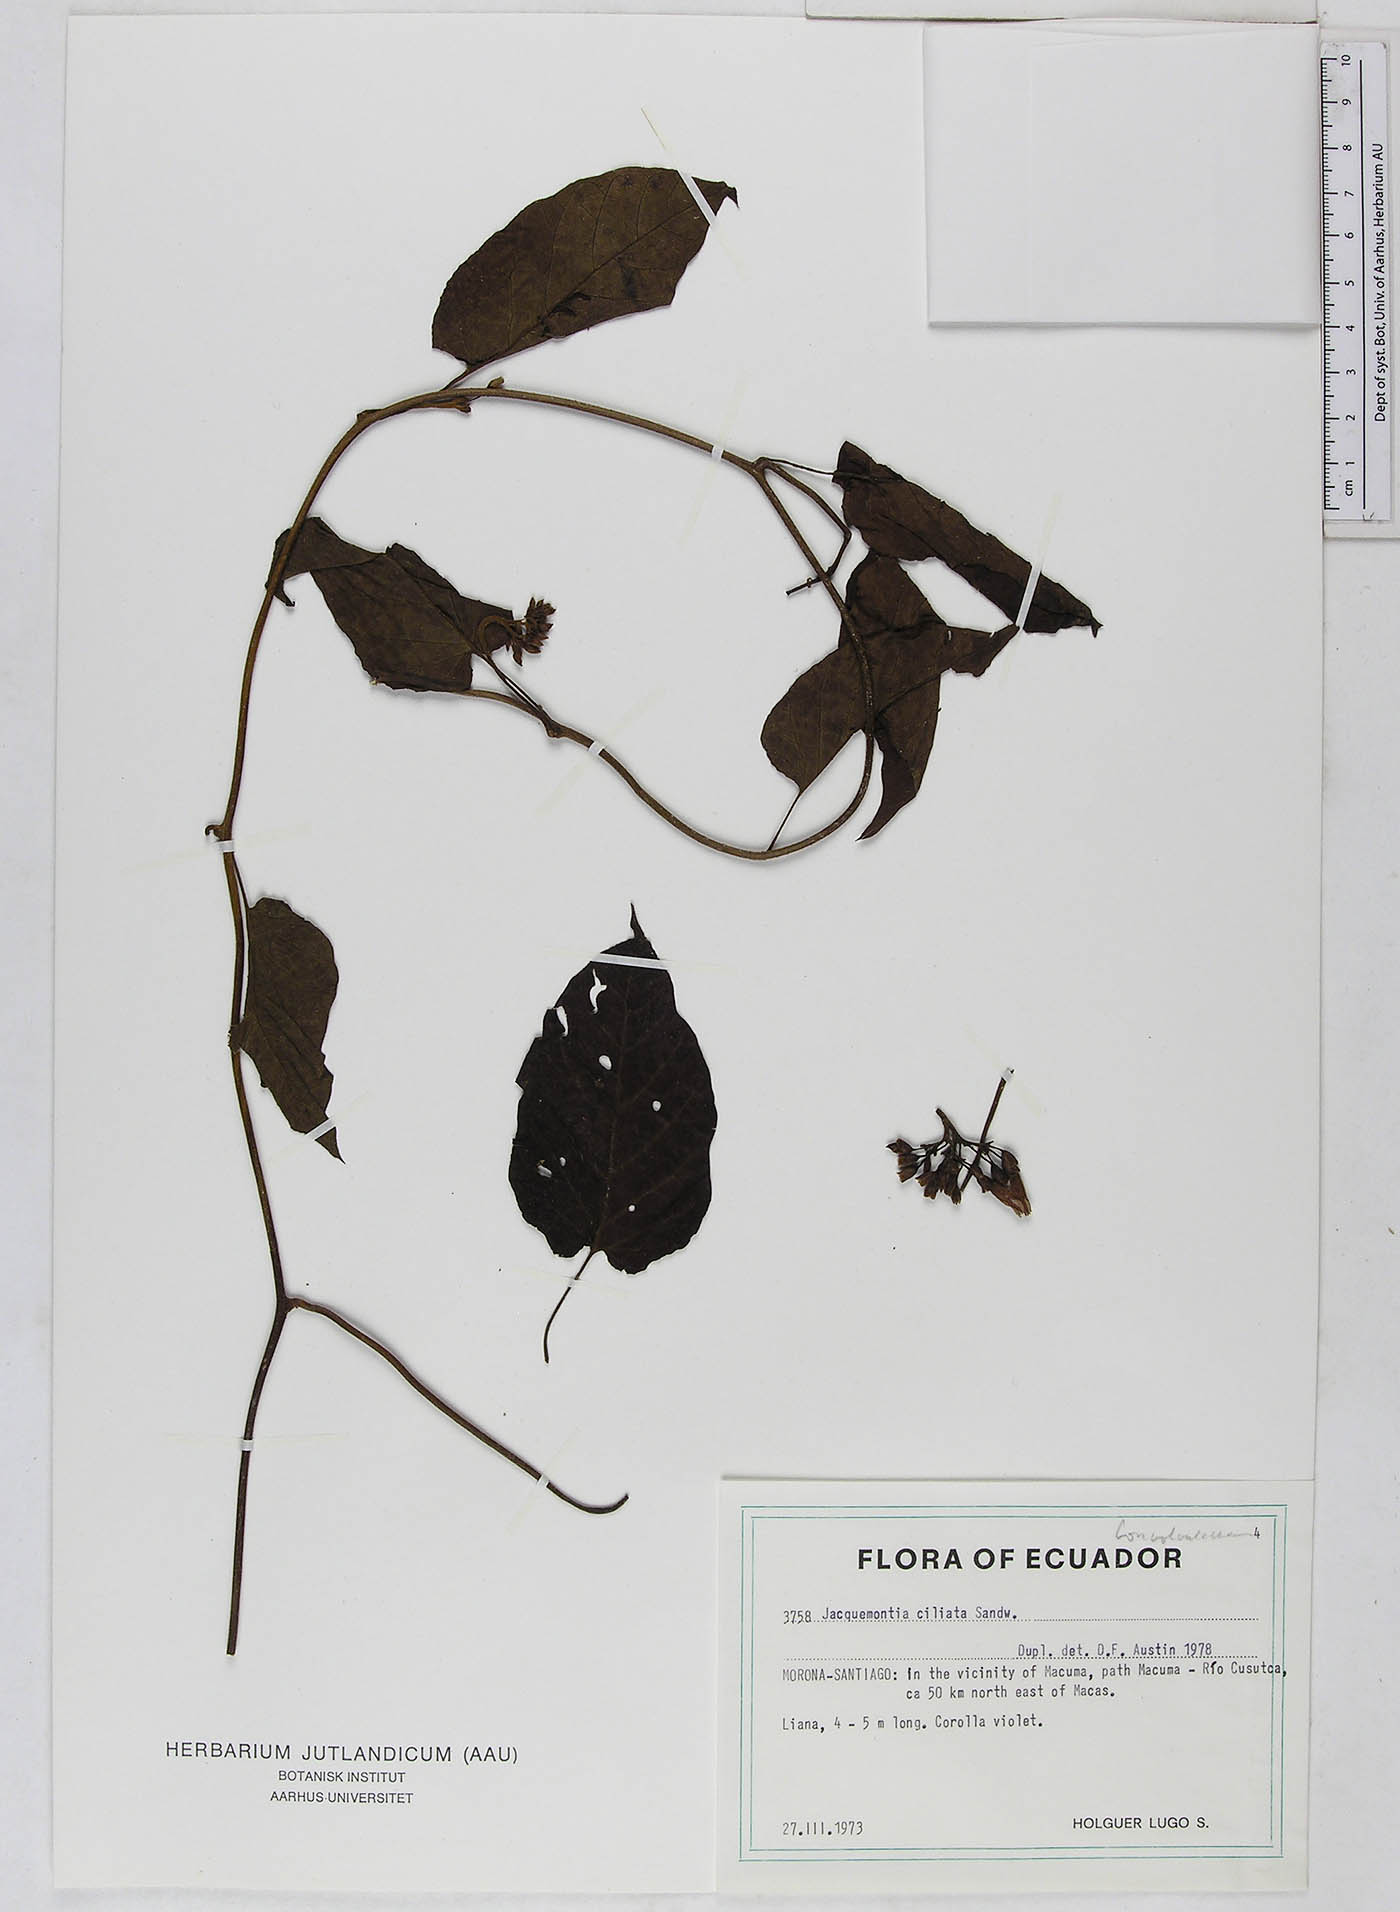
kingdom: Plantae
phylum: Tracheophyta
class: Magnoliopsida
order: Solanales
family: Convolvulaceae
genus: Jacquemontia
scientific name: Jacquemontia gabrielii
